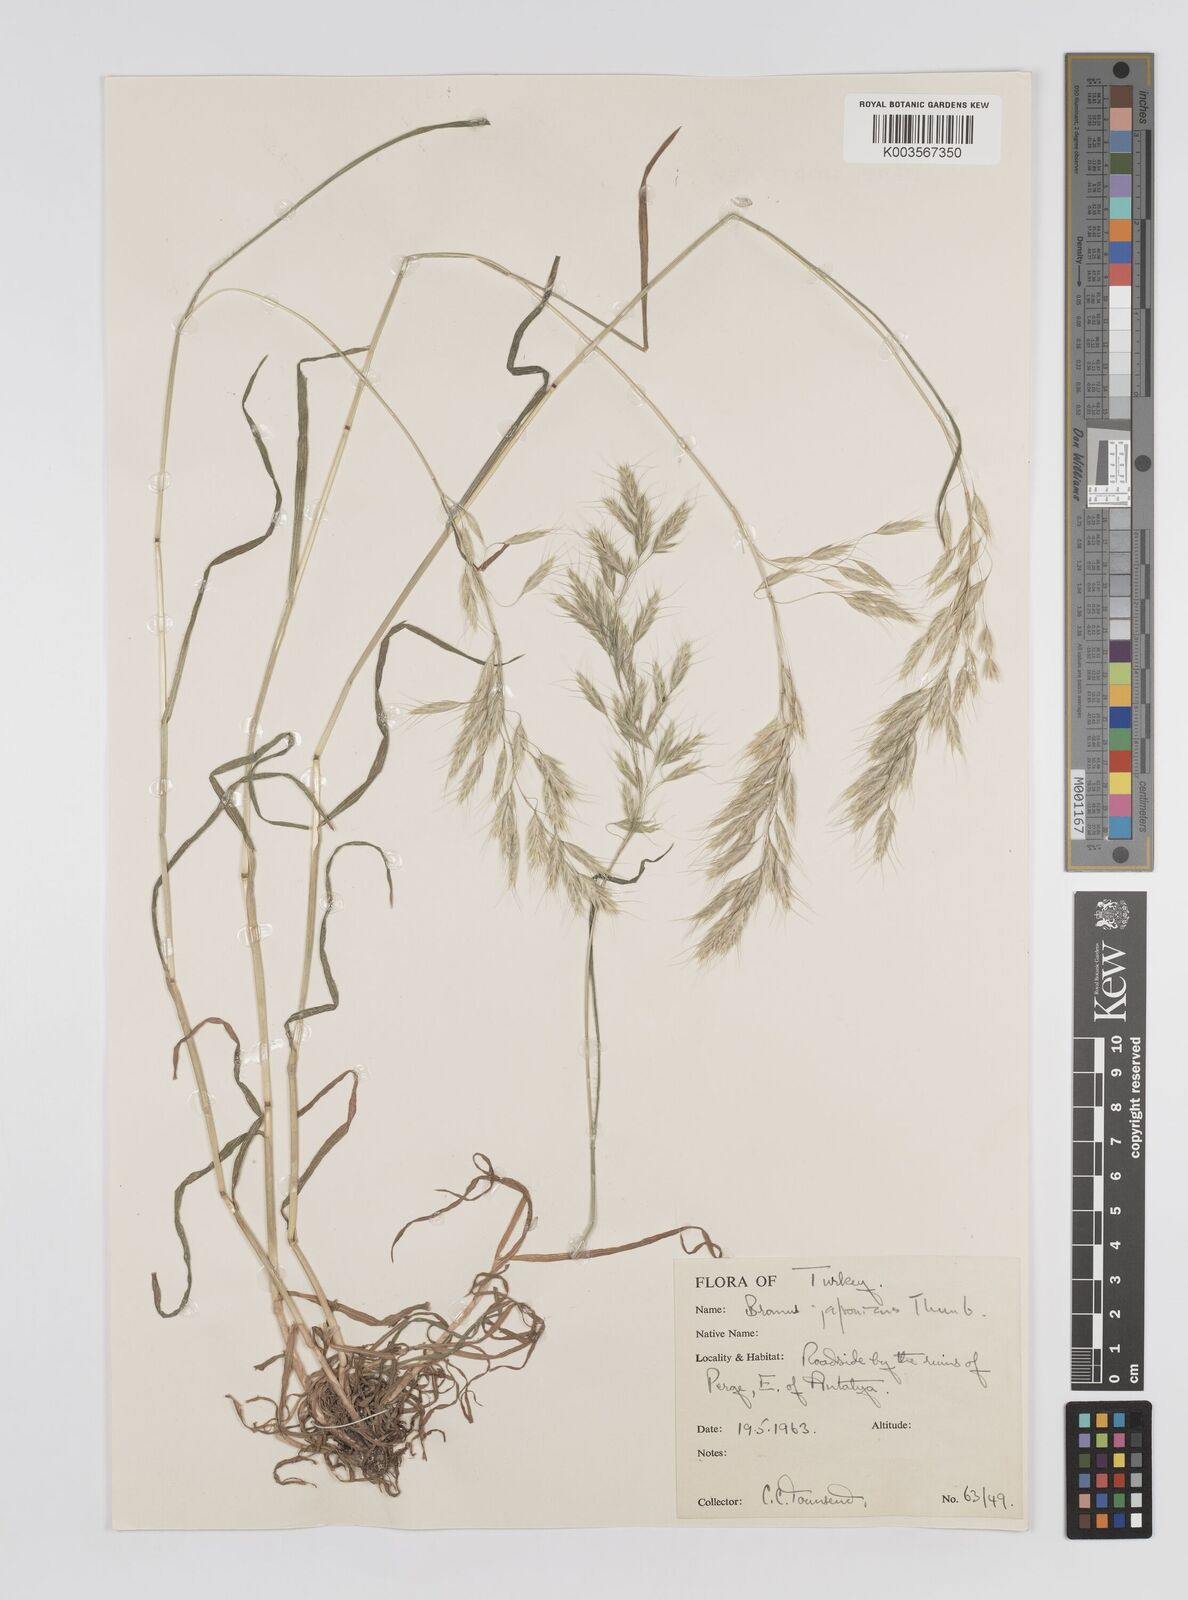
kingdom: Plantae
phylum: Tracheophyta
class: Liliopsida
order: Poales
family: Poaceae
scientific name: Poaceae
